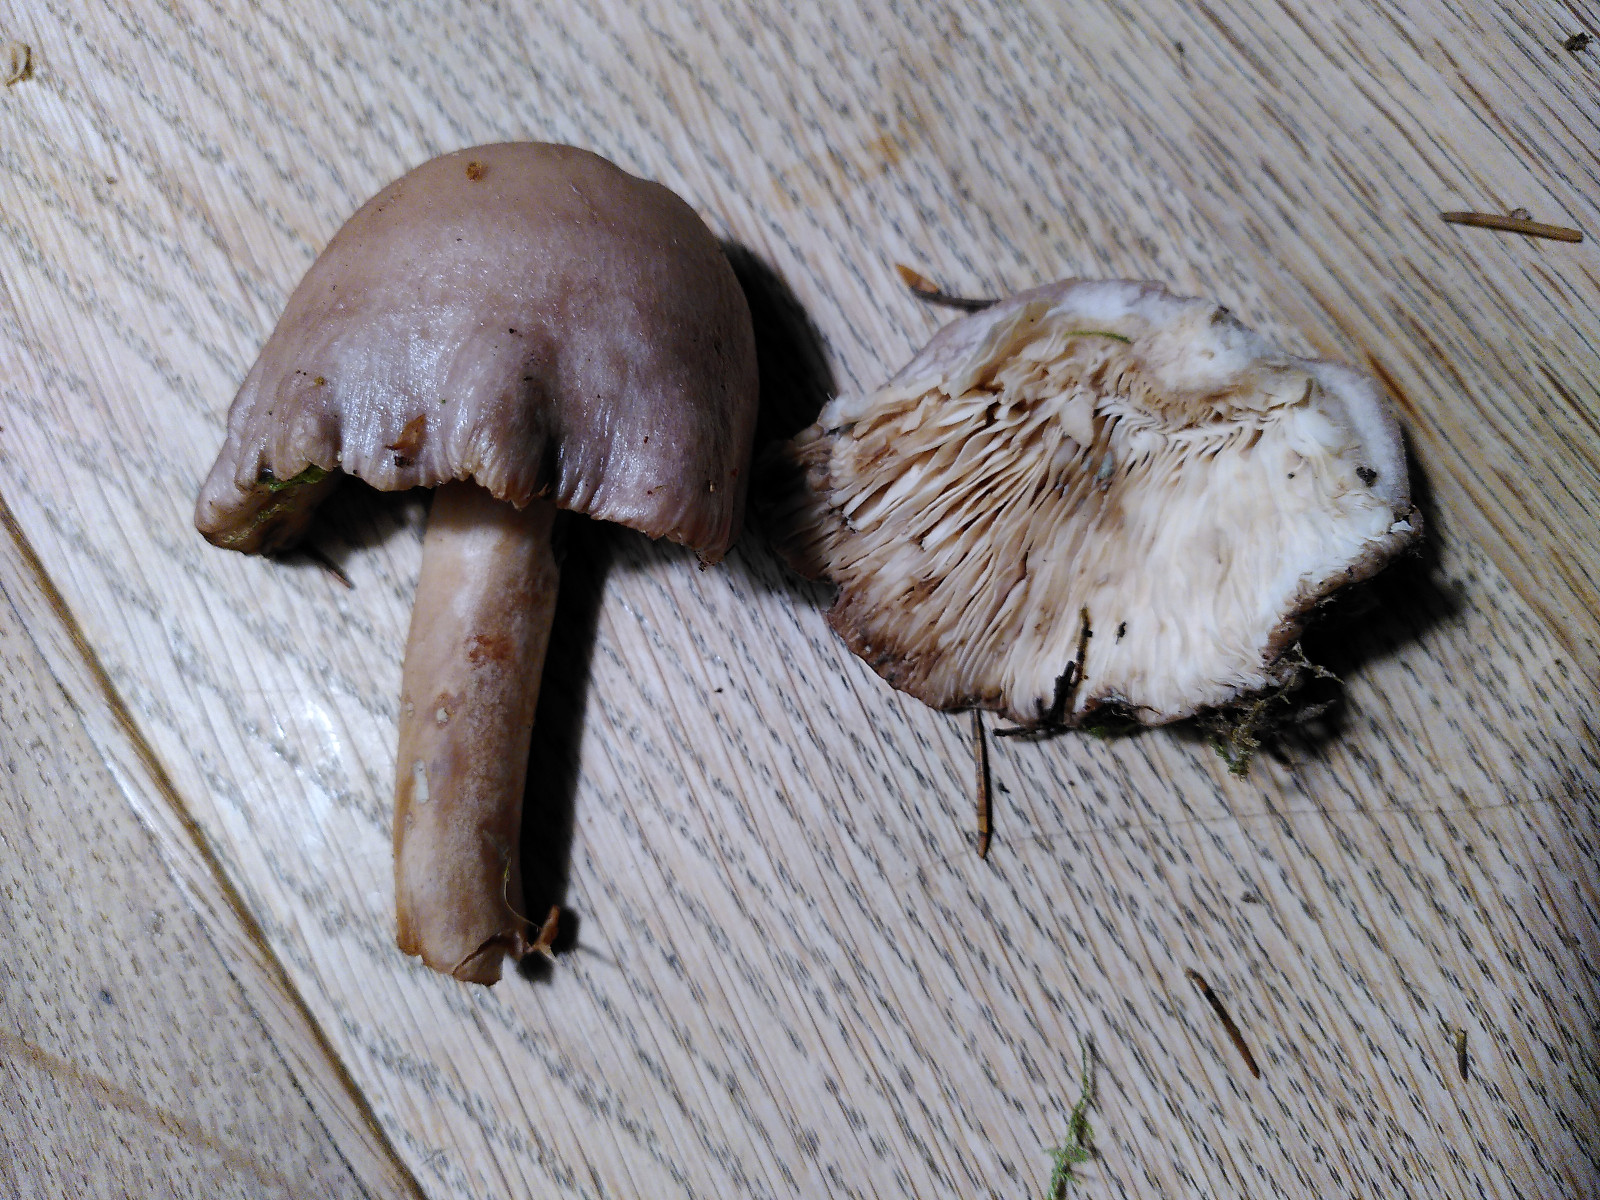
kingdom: Fungi
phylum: Basidiomycota
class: Agaricomycetes
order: Agaricales
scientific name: Agaricales
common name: champignonordenen
